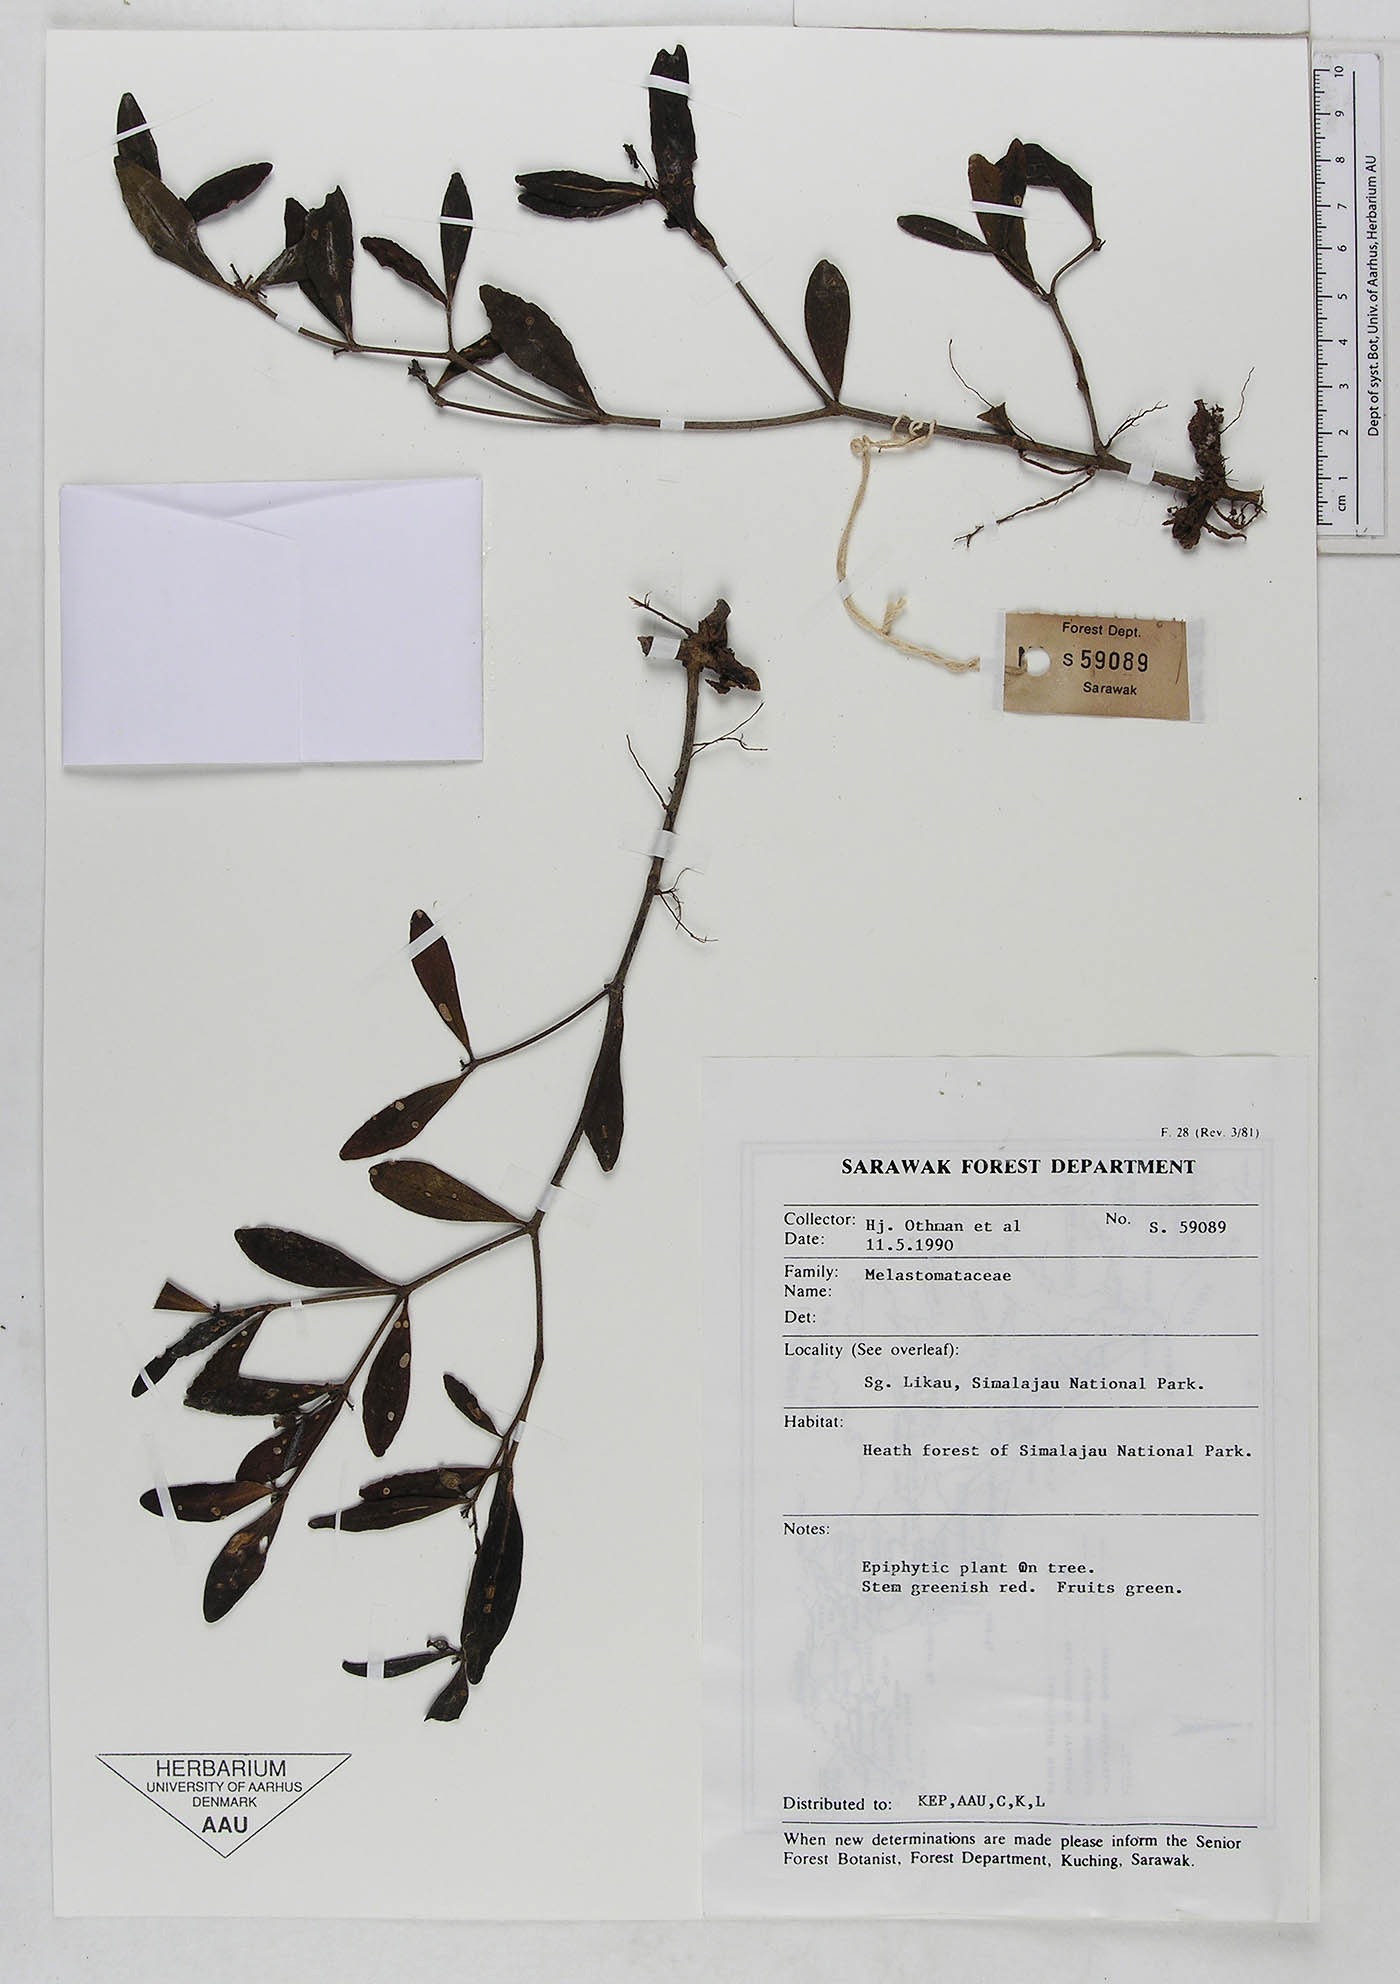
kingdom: Plantae
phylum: Tracheophyta
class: Magnoliopsida
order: Myrtales
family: Melastomataceae
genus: Pachycentria
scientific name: Pachycentria glauca
